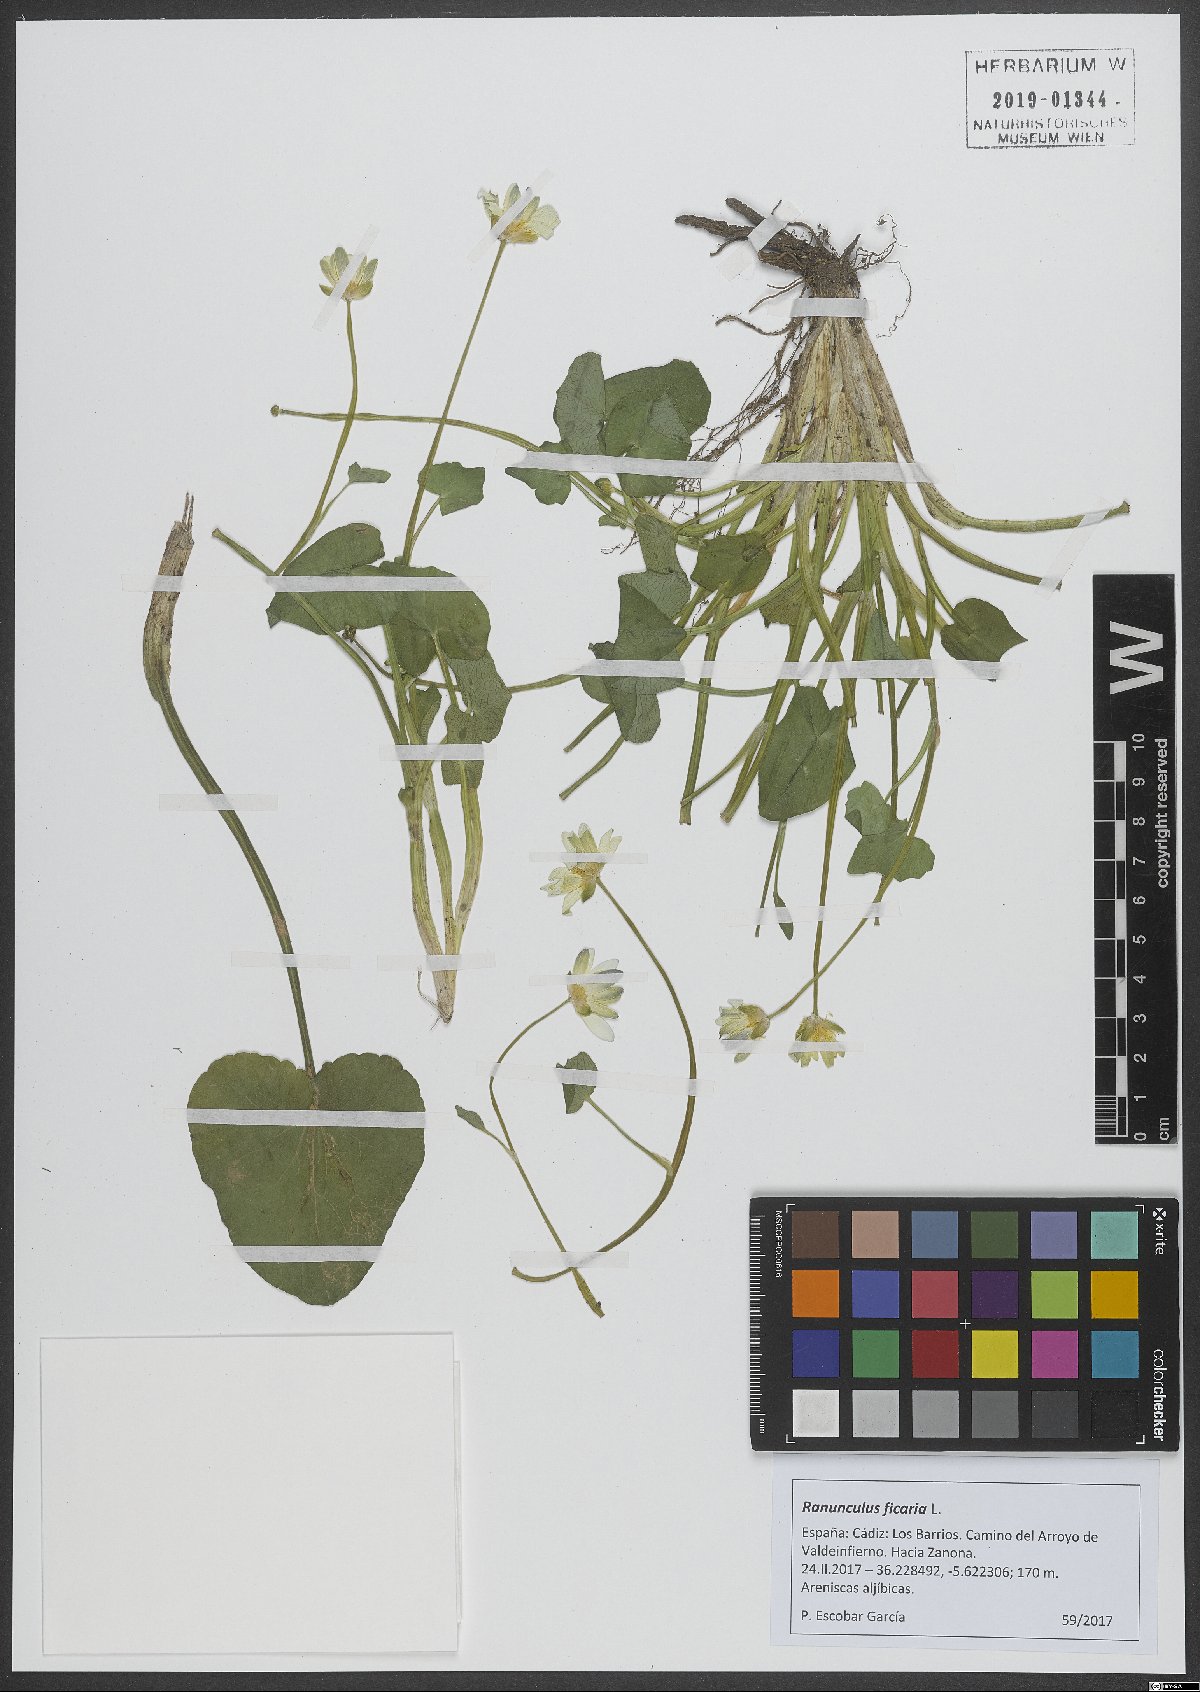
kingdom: Plantae
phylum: Tracheophyta
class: Magnoliopsida
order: Ranunculales
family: Ranunculaceae
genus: Ficaria
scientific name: Ficaria verna
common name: Lesser celandine
